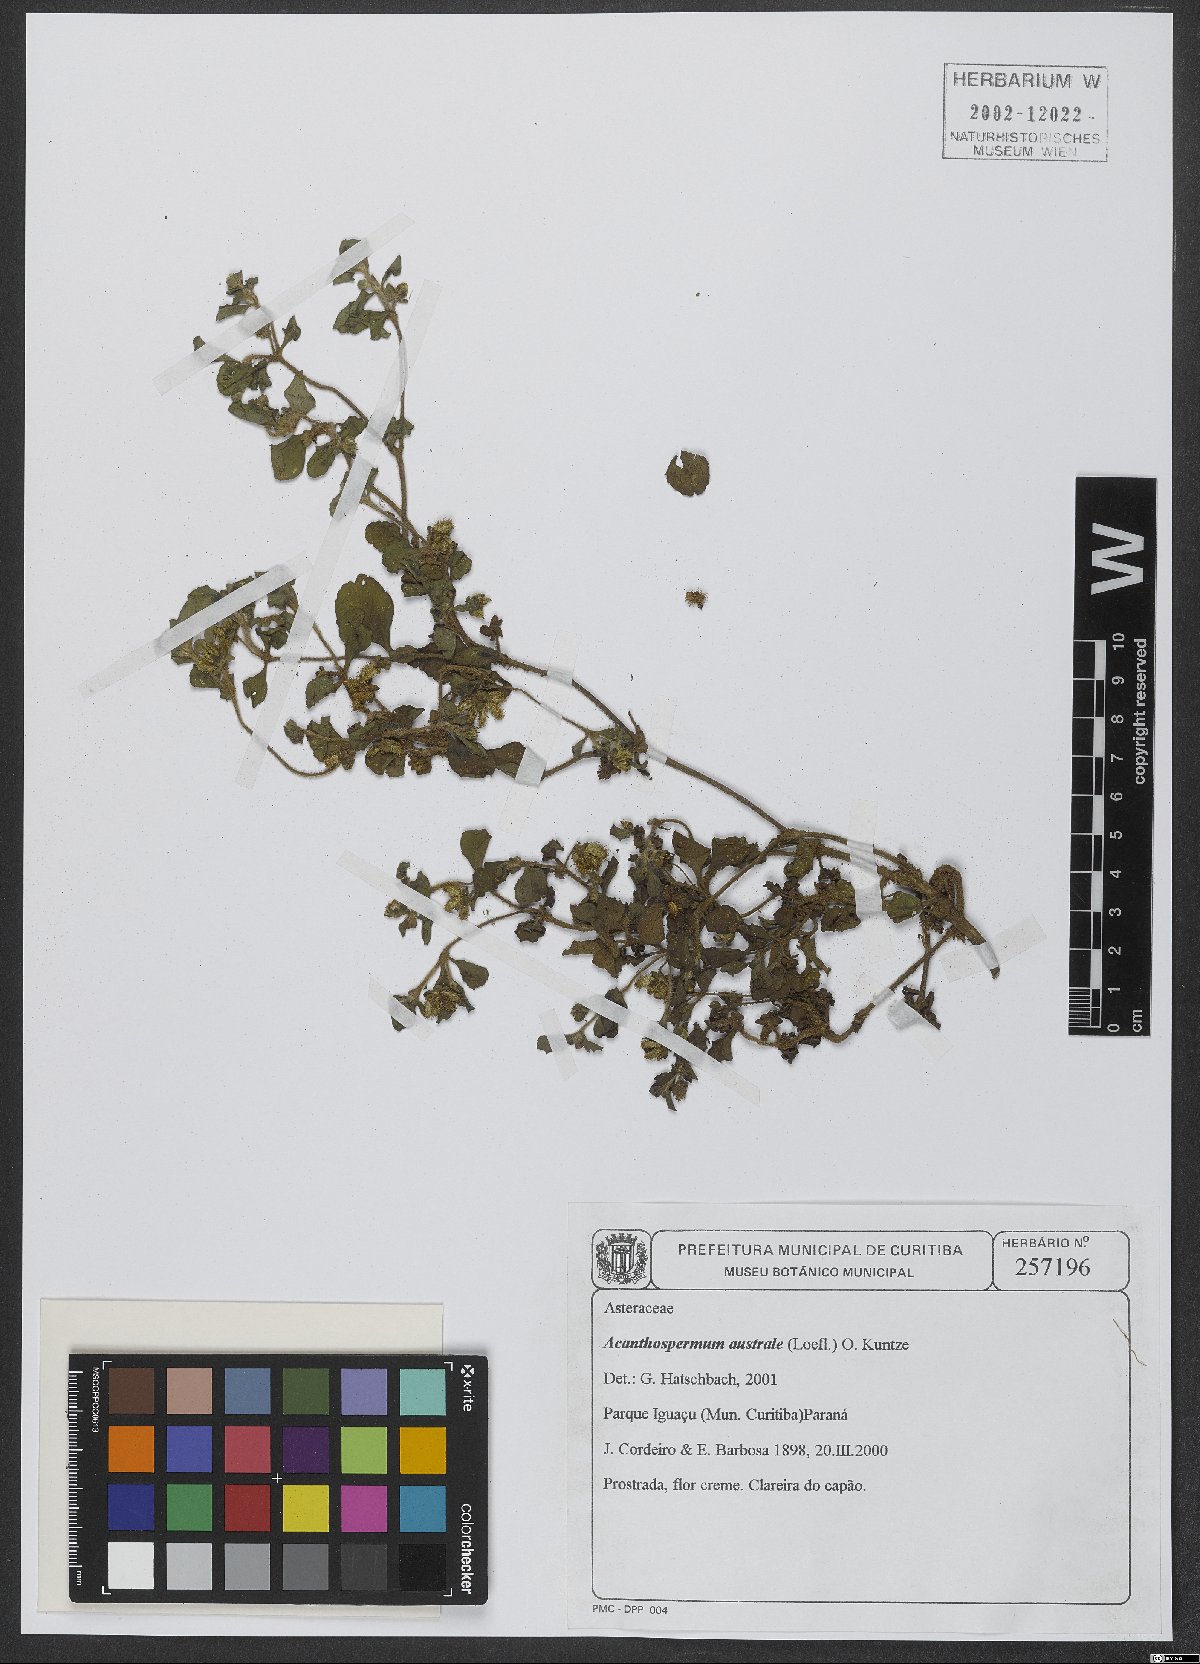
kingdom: Plantae
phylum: Tracheophyta
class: Magnoliopsida
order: Asterales
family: Asteraceae
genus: Acanthospermum
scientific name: Acanthospermum australe
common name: Paraguayan starbur
